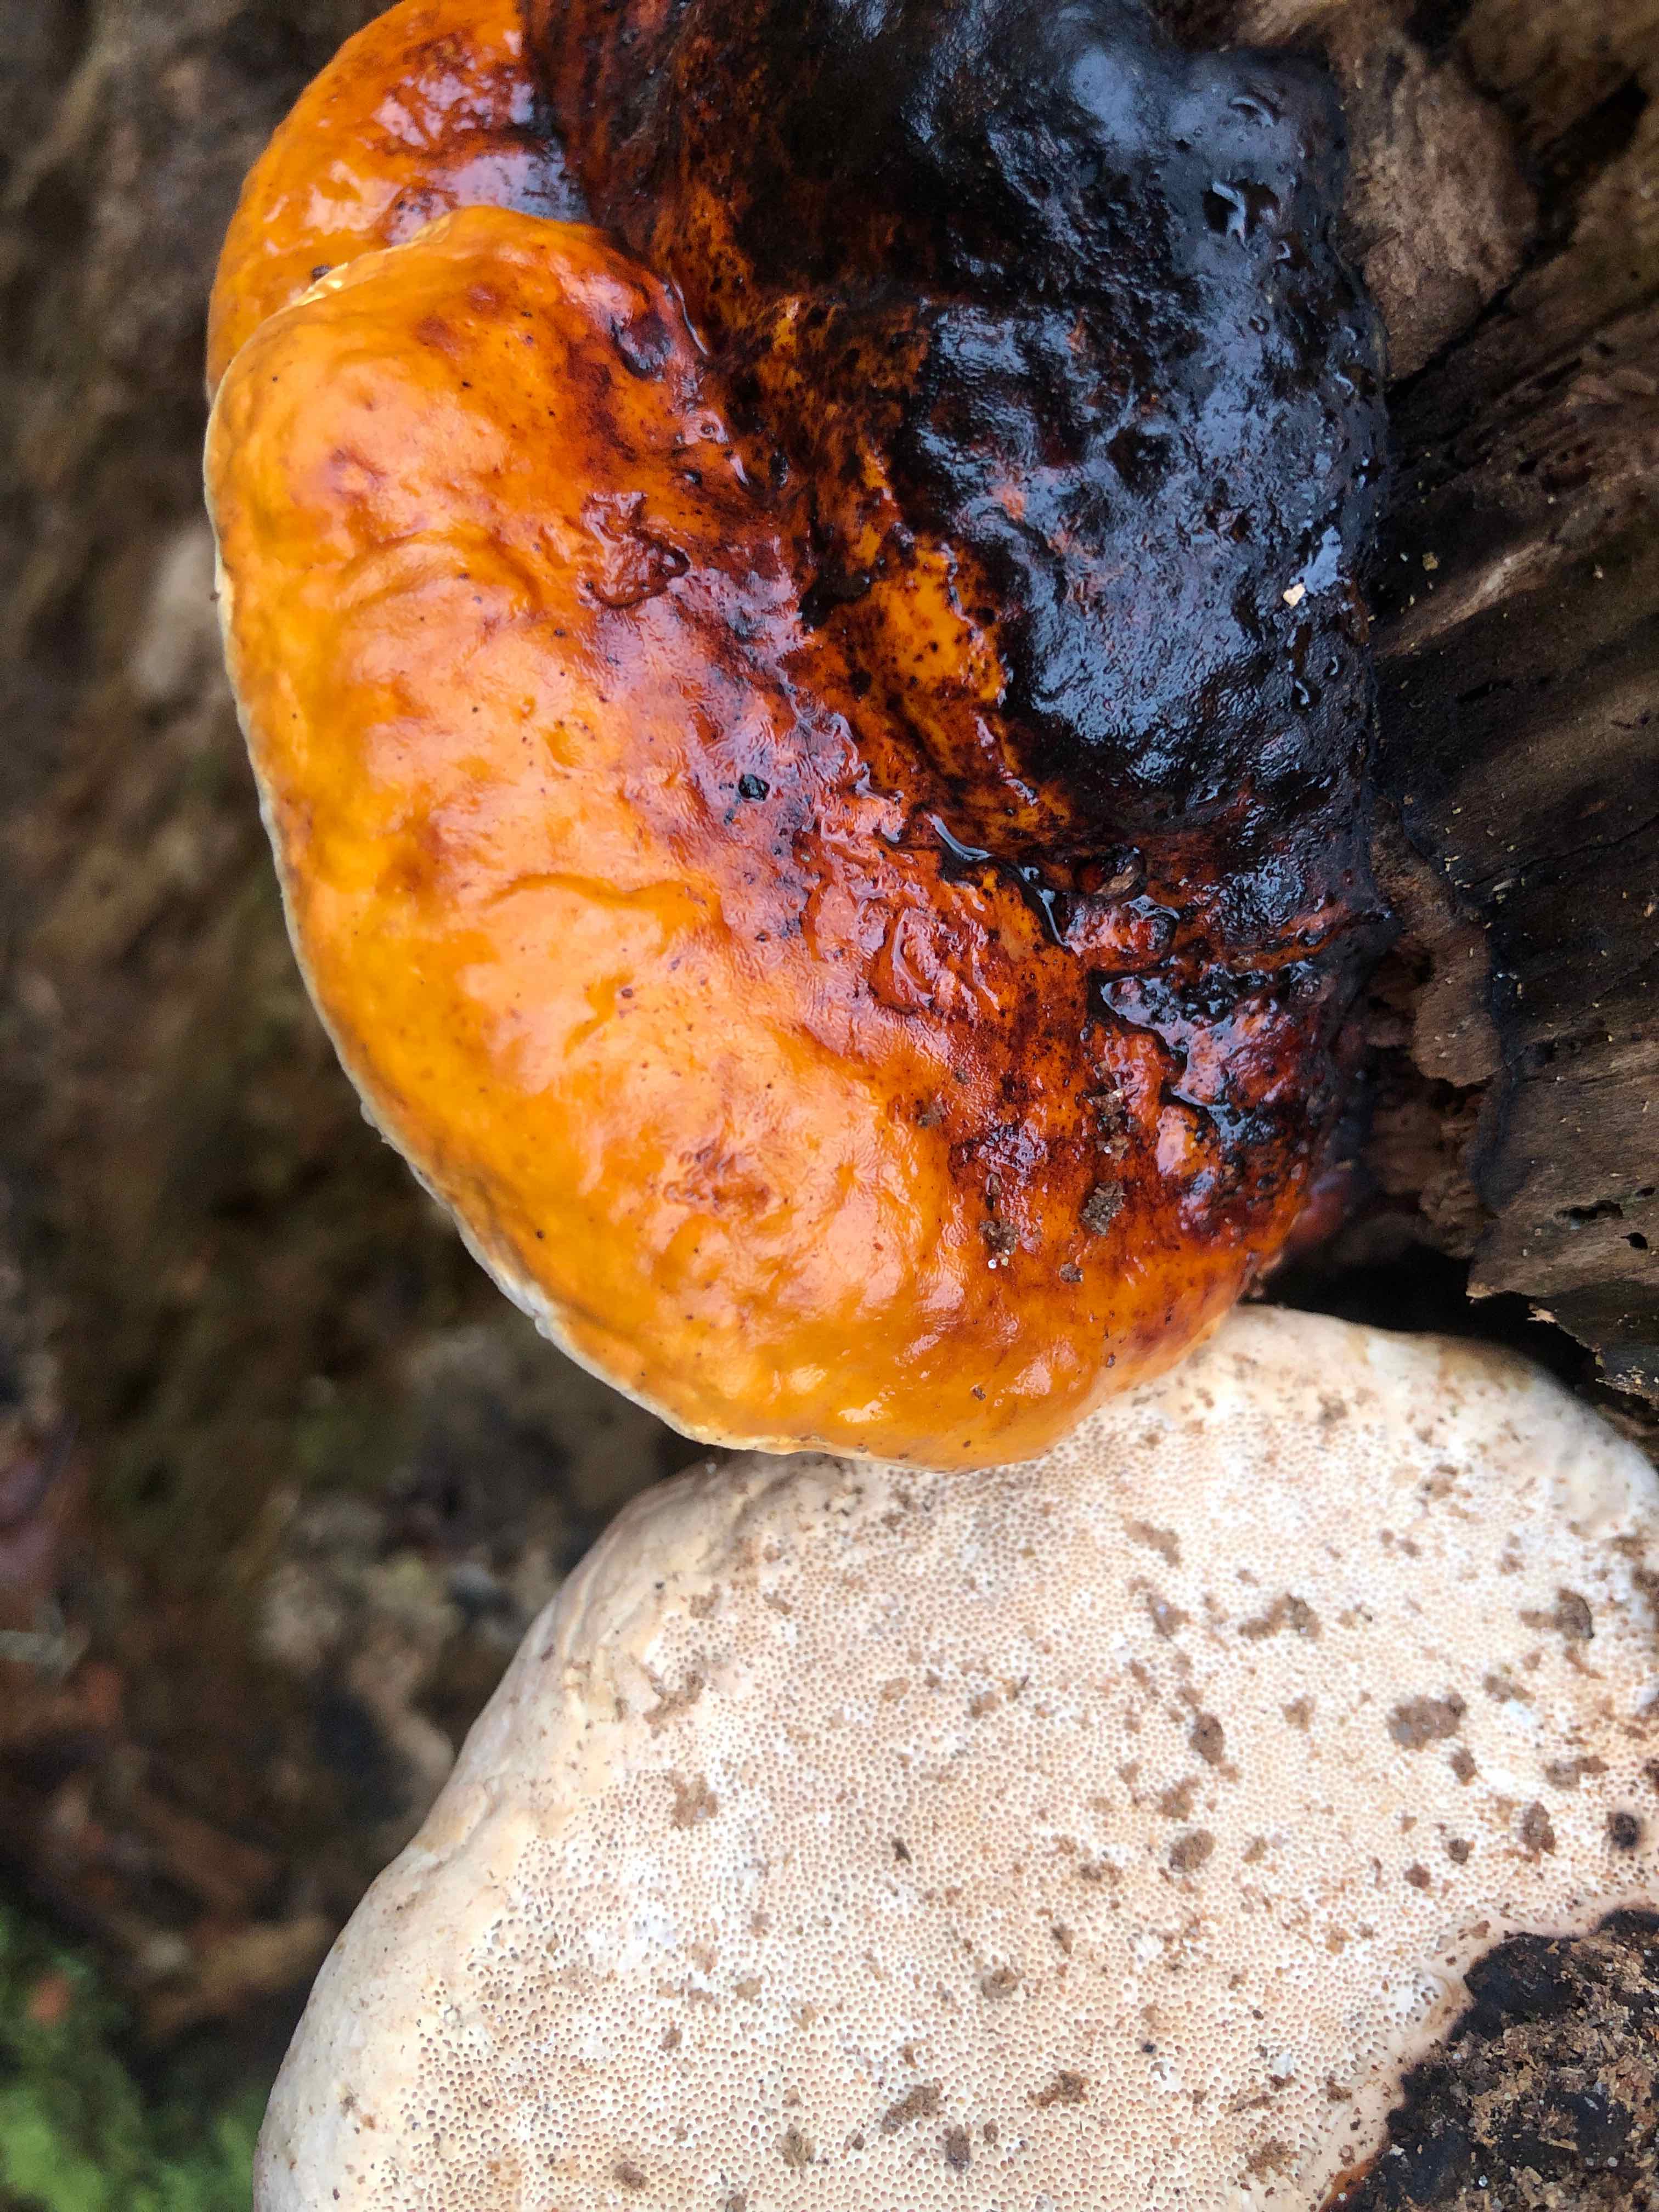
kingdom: Fungi
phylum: Basidiomycota
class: Agaricomycetes
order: Polyporales
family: Fomitopsidaceae
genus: Fomitopsis
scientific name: Fomitopsis pinicola
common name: randbæltet hovporesvamp
